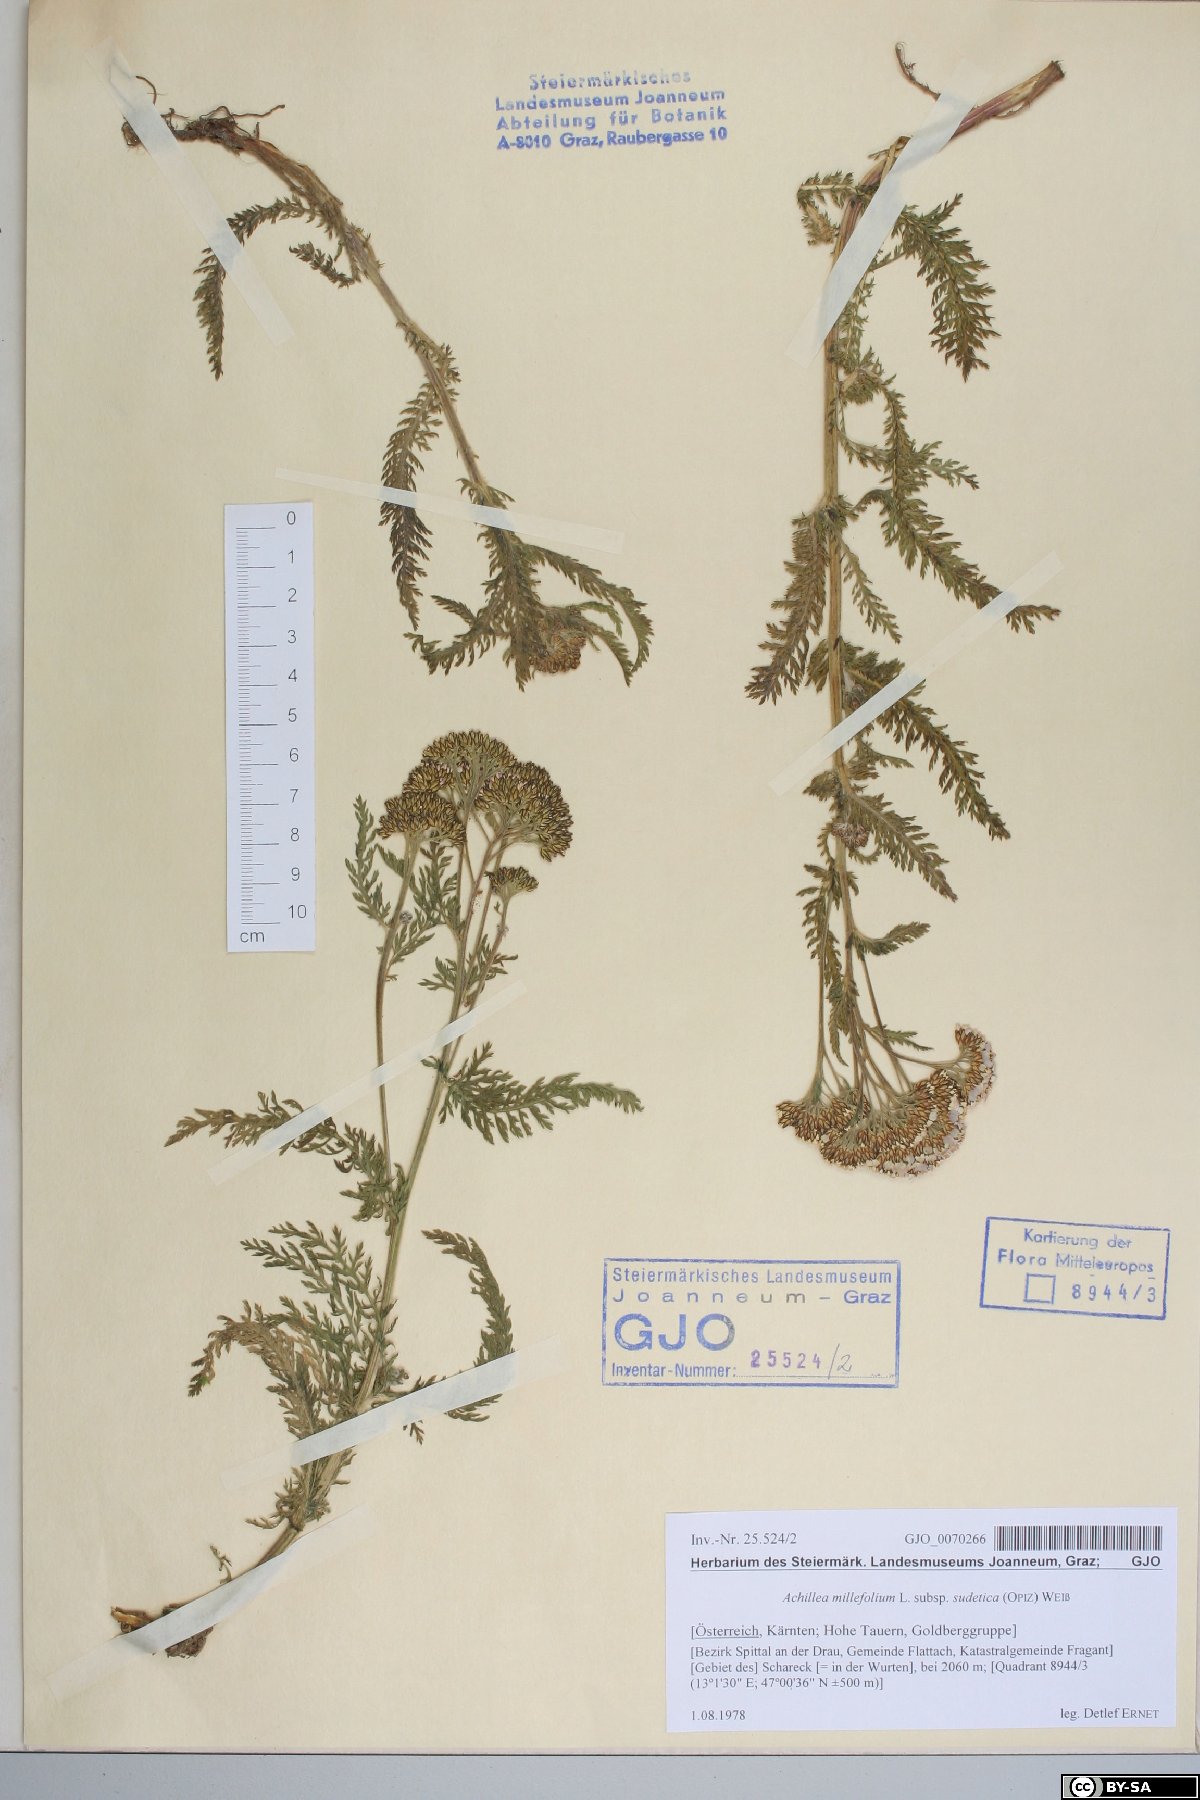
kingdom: Plantae
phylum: Tracheophyta
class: Magnoliopsida
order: Asterales
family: Asteraceae
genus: Achillea
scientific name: Achillea millefolium
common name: Yarrow
